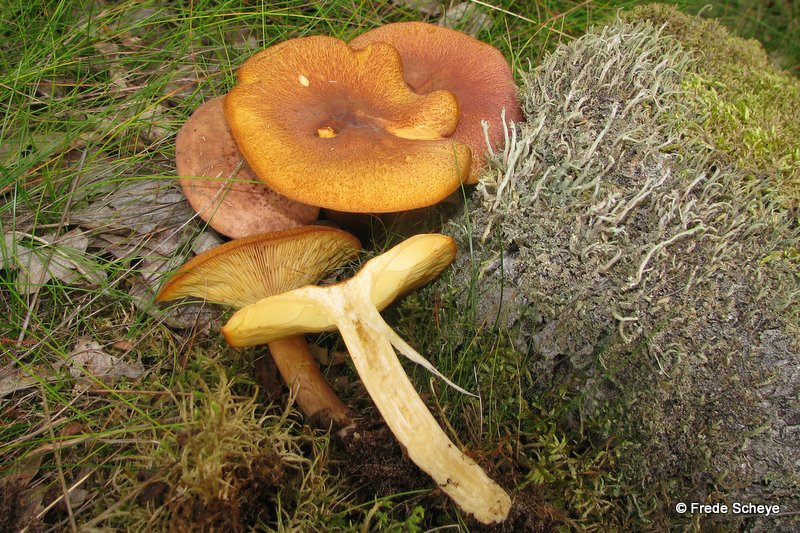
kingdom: Fungi
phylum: Basidiomycota
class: Agaricomycetes
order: Agaricales
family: Tricholomataceae
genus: Tricholomopsis
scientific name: Tricholomopsis rutilans
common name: purpur-væbnerhat
